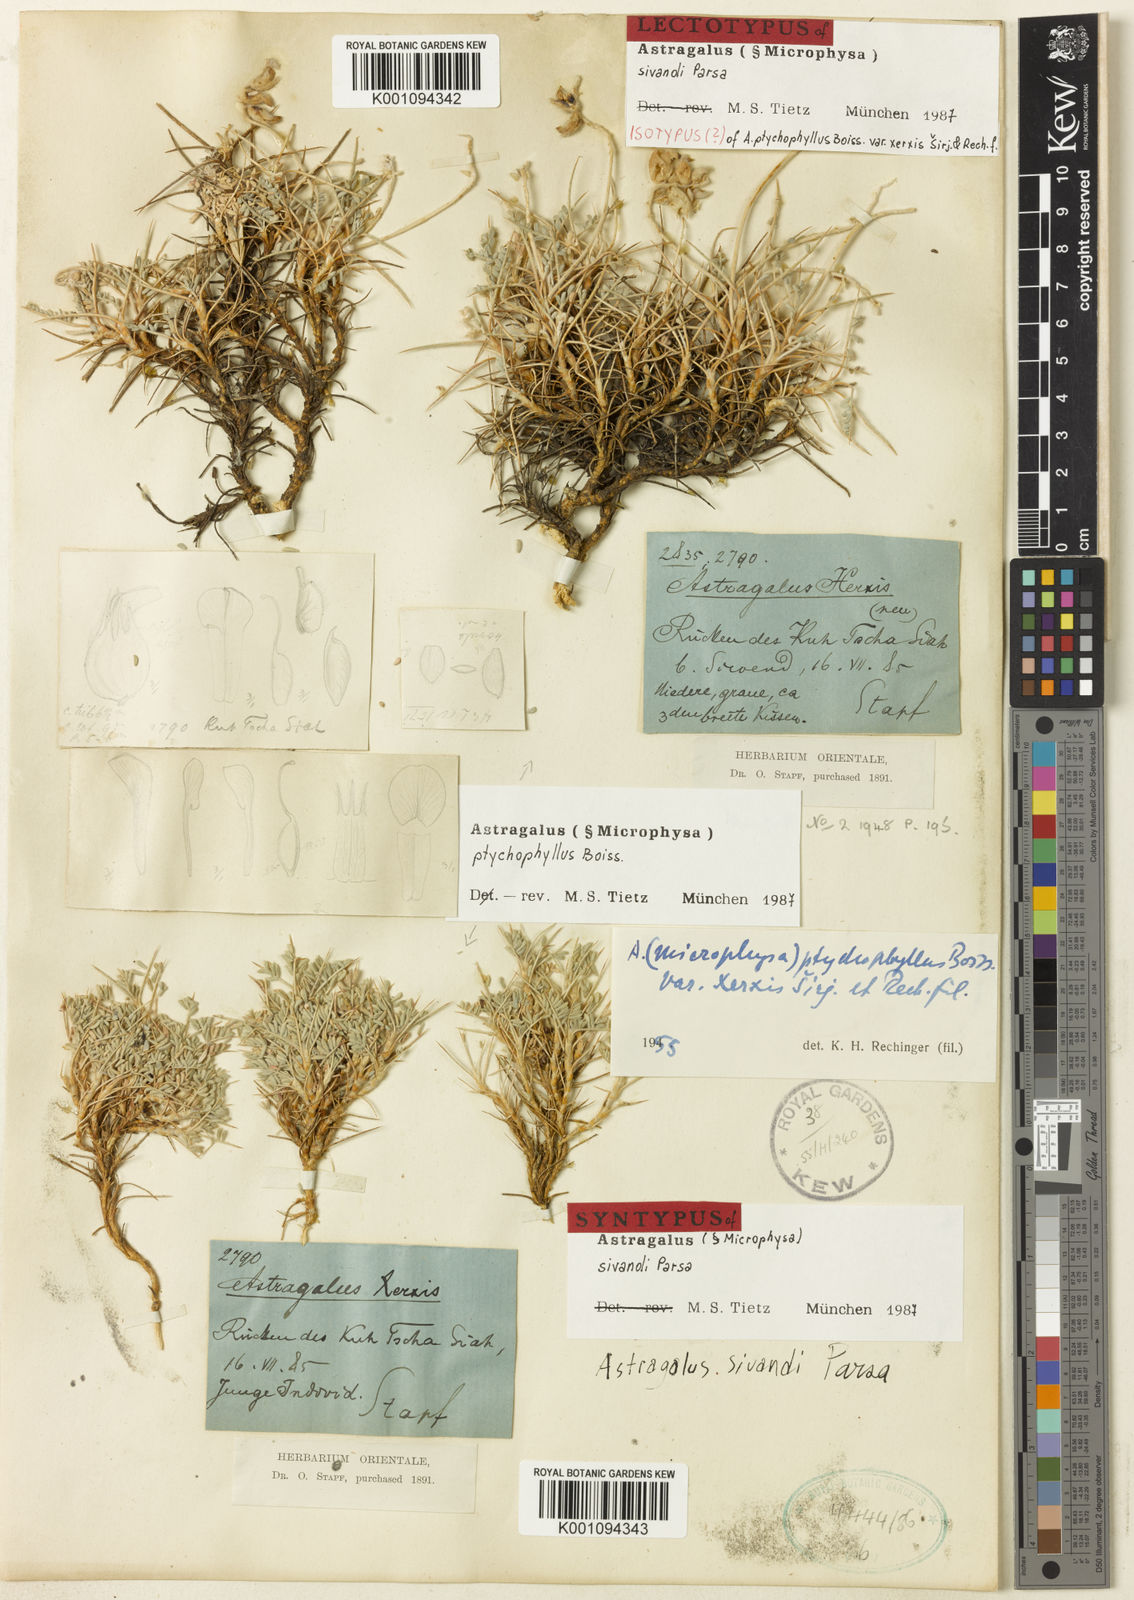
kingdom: Plantae
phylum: Tracheophyta
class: Magnoliopsida
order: Fabales
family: Fabaceae
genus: Astragalus
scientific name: Astragalus
